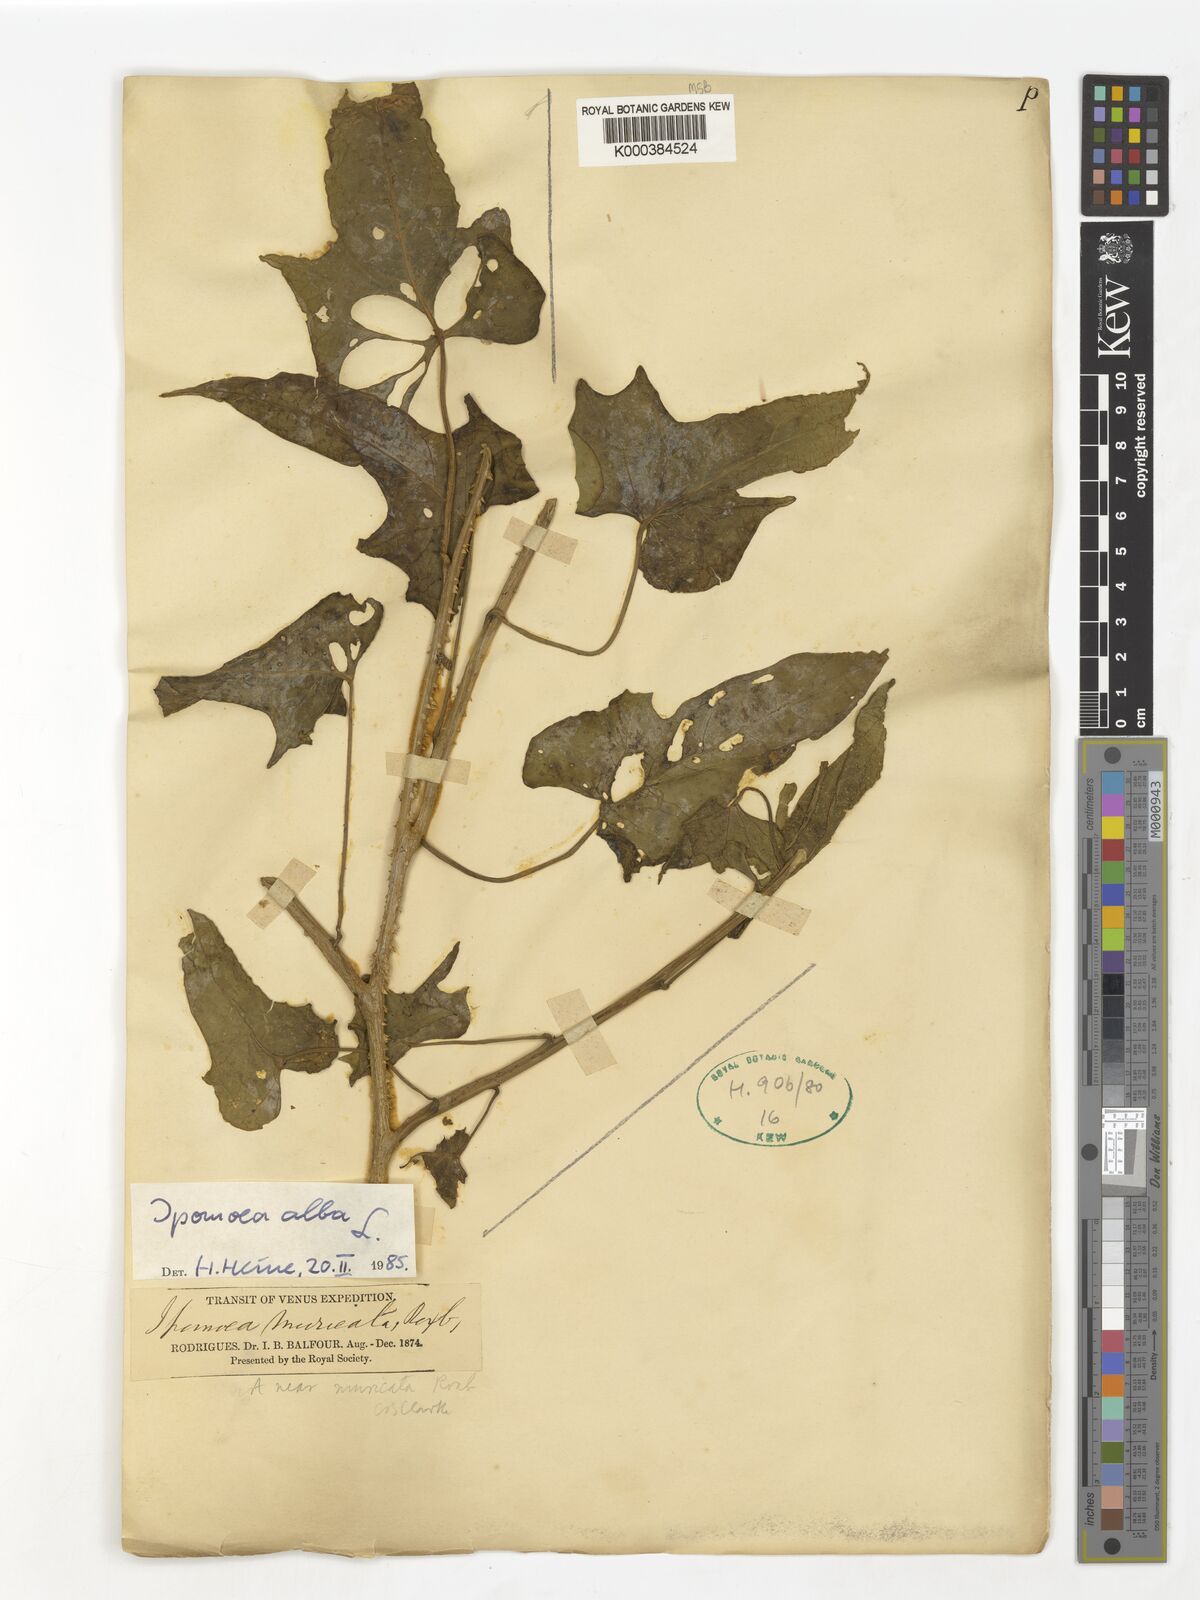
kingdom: Plantae
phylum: Tracheophyta
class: Magnoliopsida
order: Solanales
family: Convolvulaceae
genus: Ipomoea
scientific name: Ipomoea alba
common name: Moonflower
